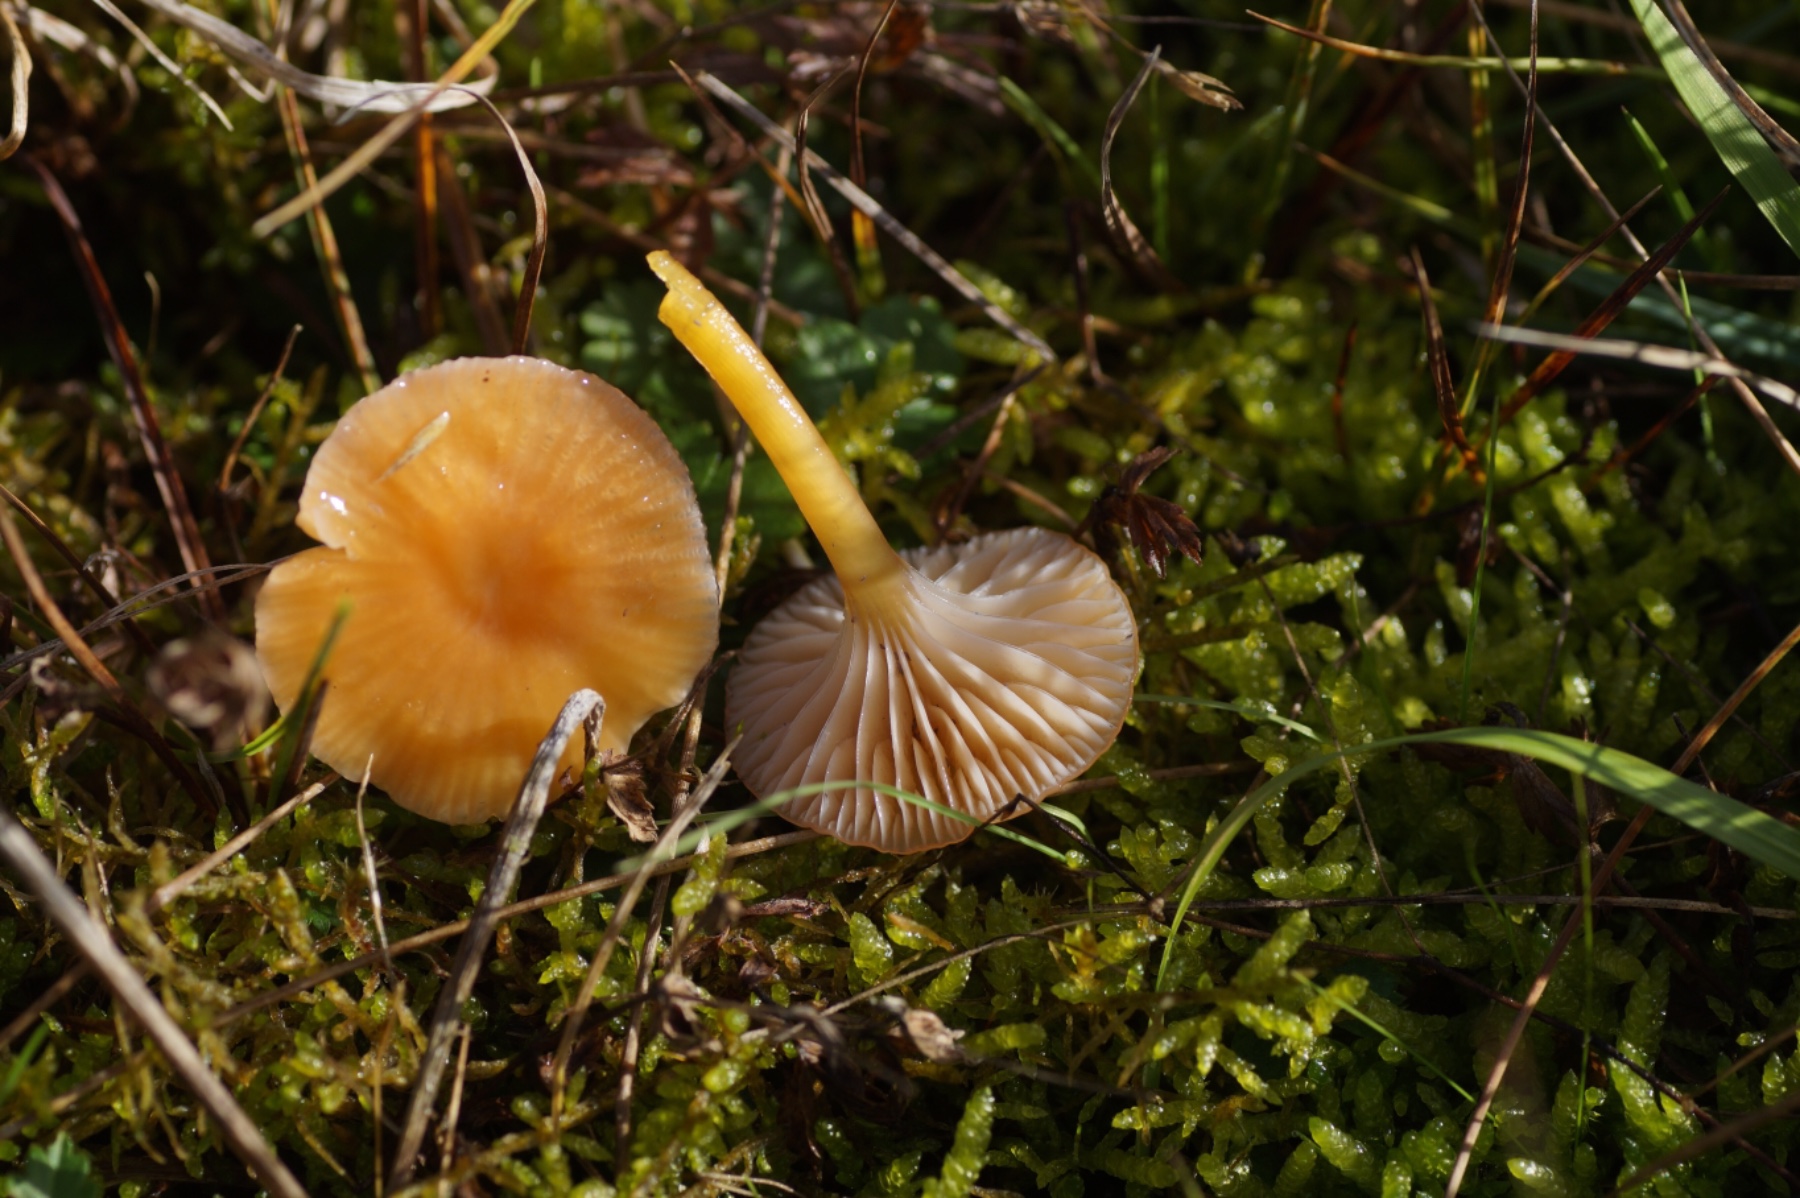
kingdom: Fungi
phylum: Basidiomycota
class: Agaricomycetes
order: Agaricales
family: Hygrophoraceae
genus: Gliophorus
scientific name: Gliophorus laetus
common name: brusk-vokshat
